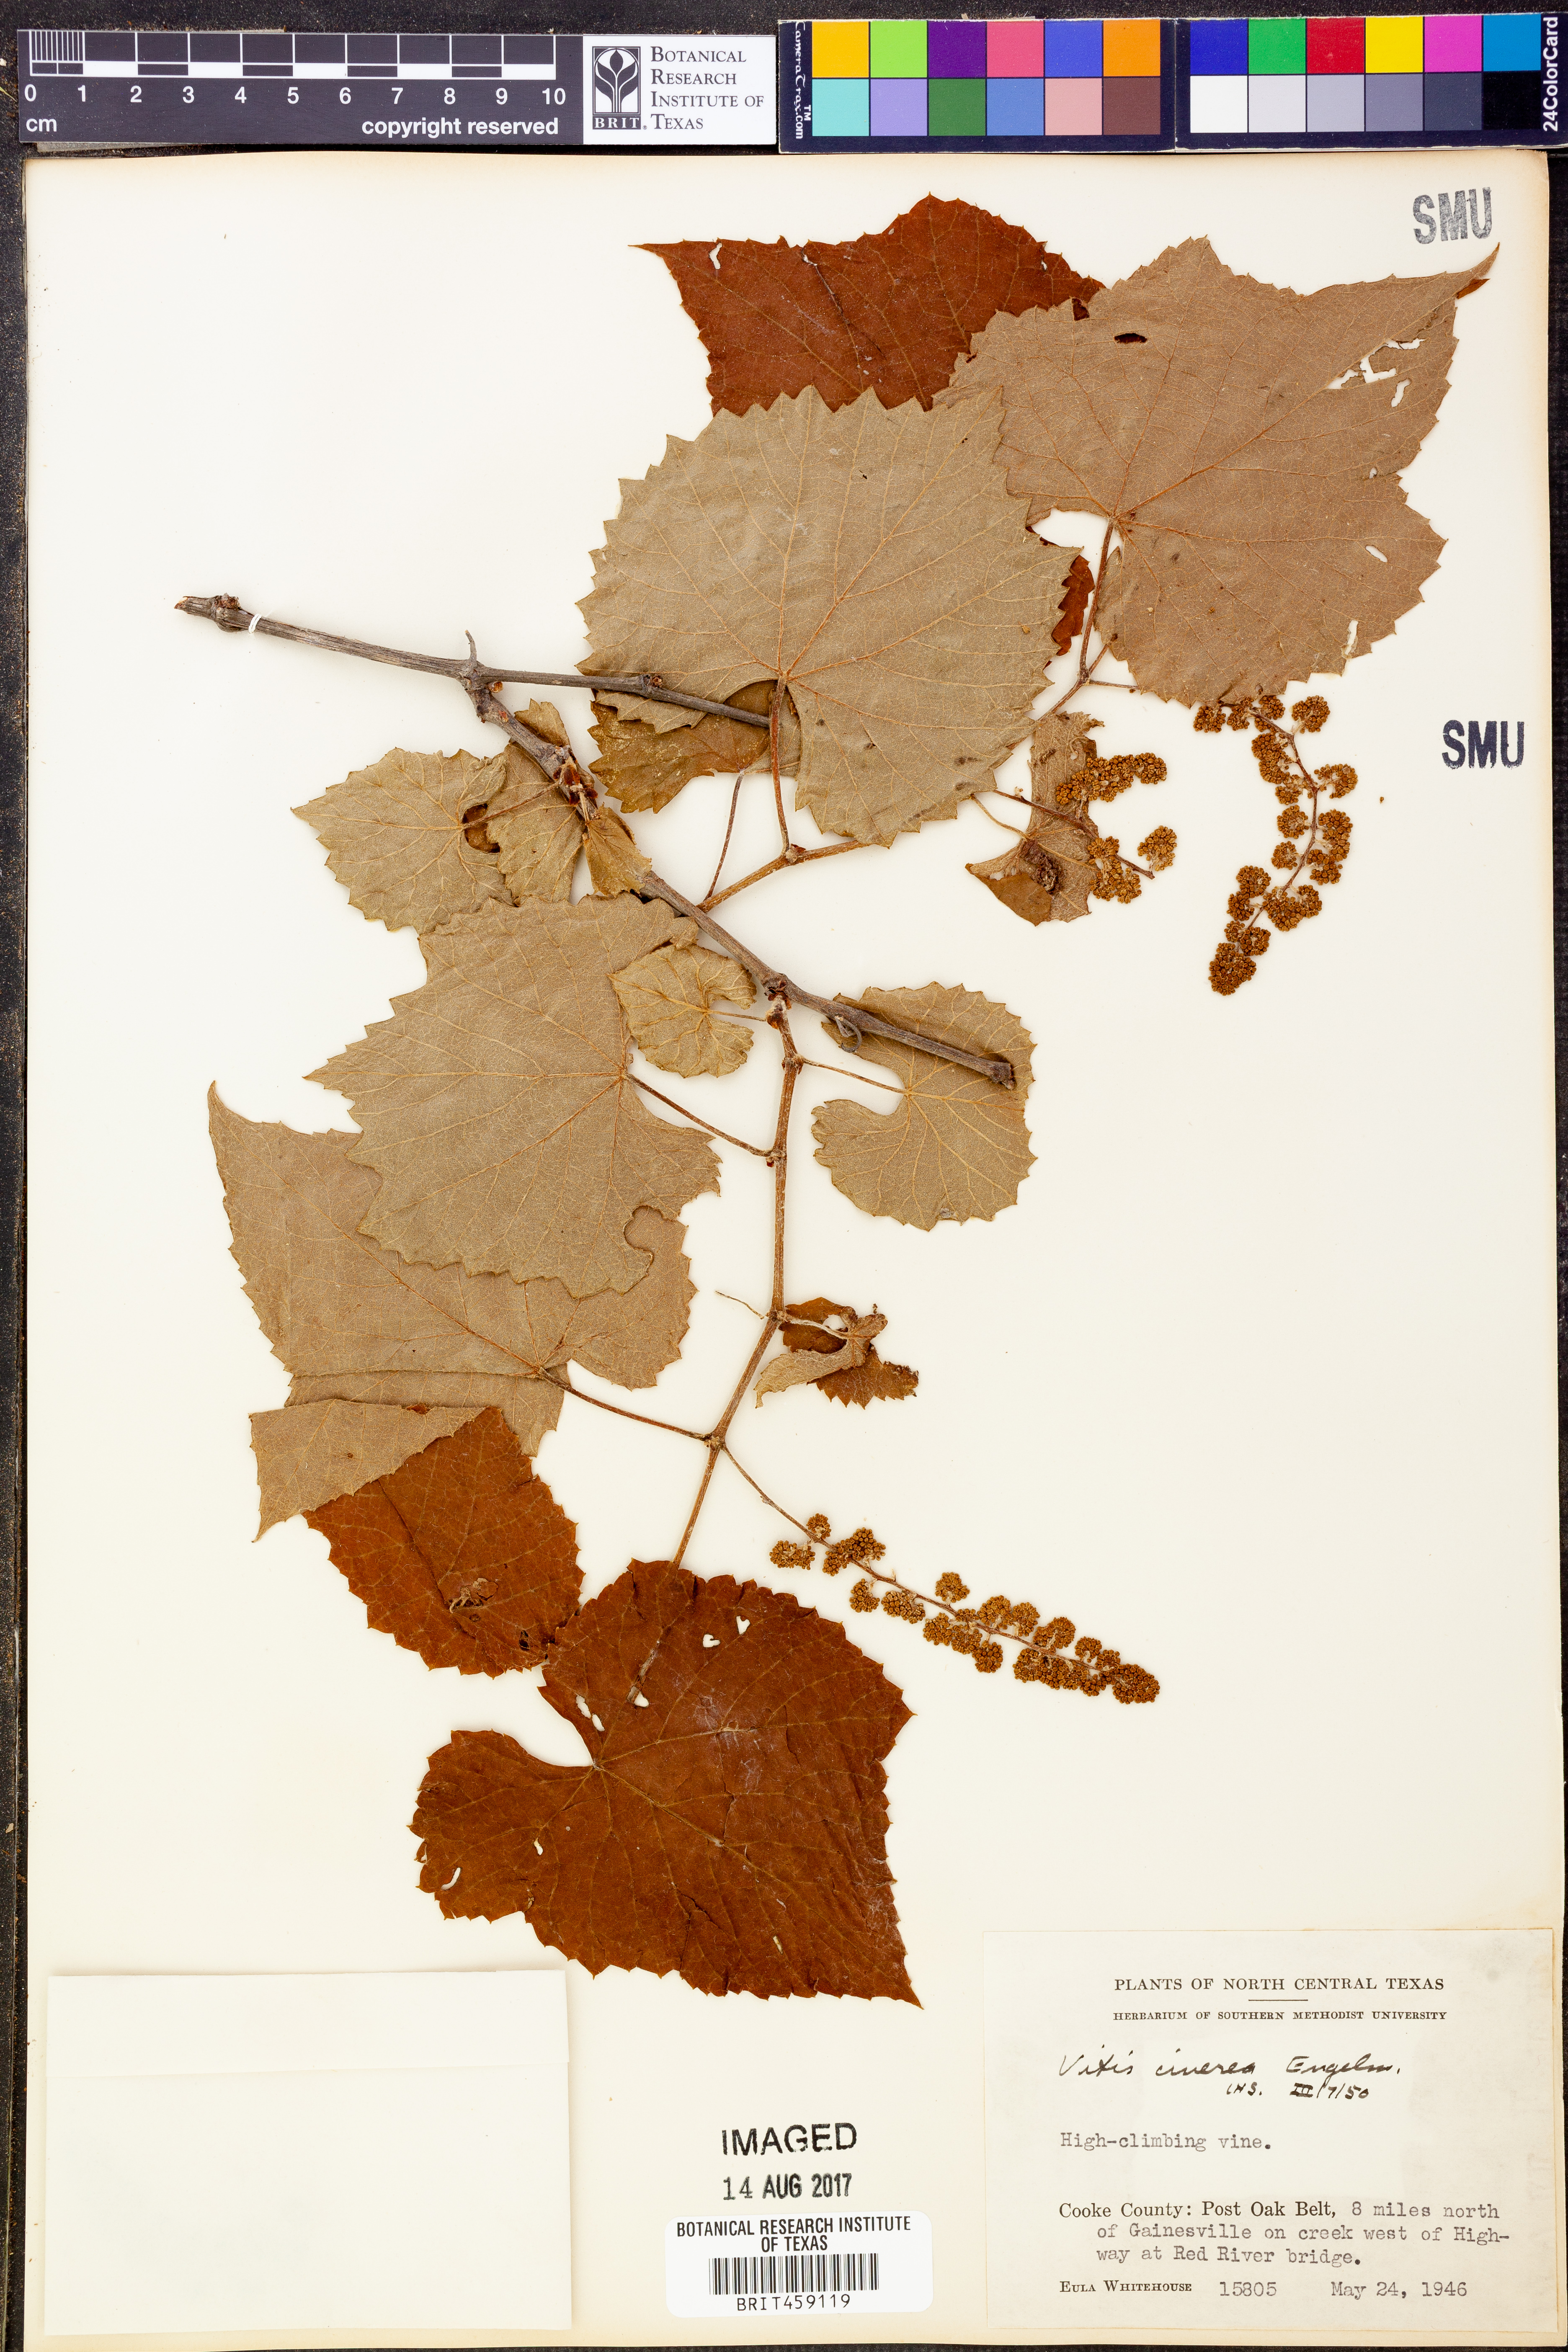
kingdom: Plantae
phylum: Tracheophyta
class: Magnoliopsida
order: Vitales
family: Vitaceae
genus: Vitis
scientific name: Vitis cinerea
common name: Ashy grape
